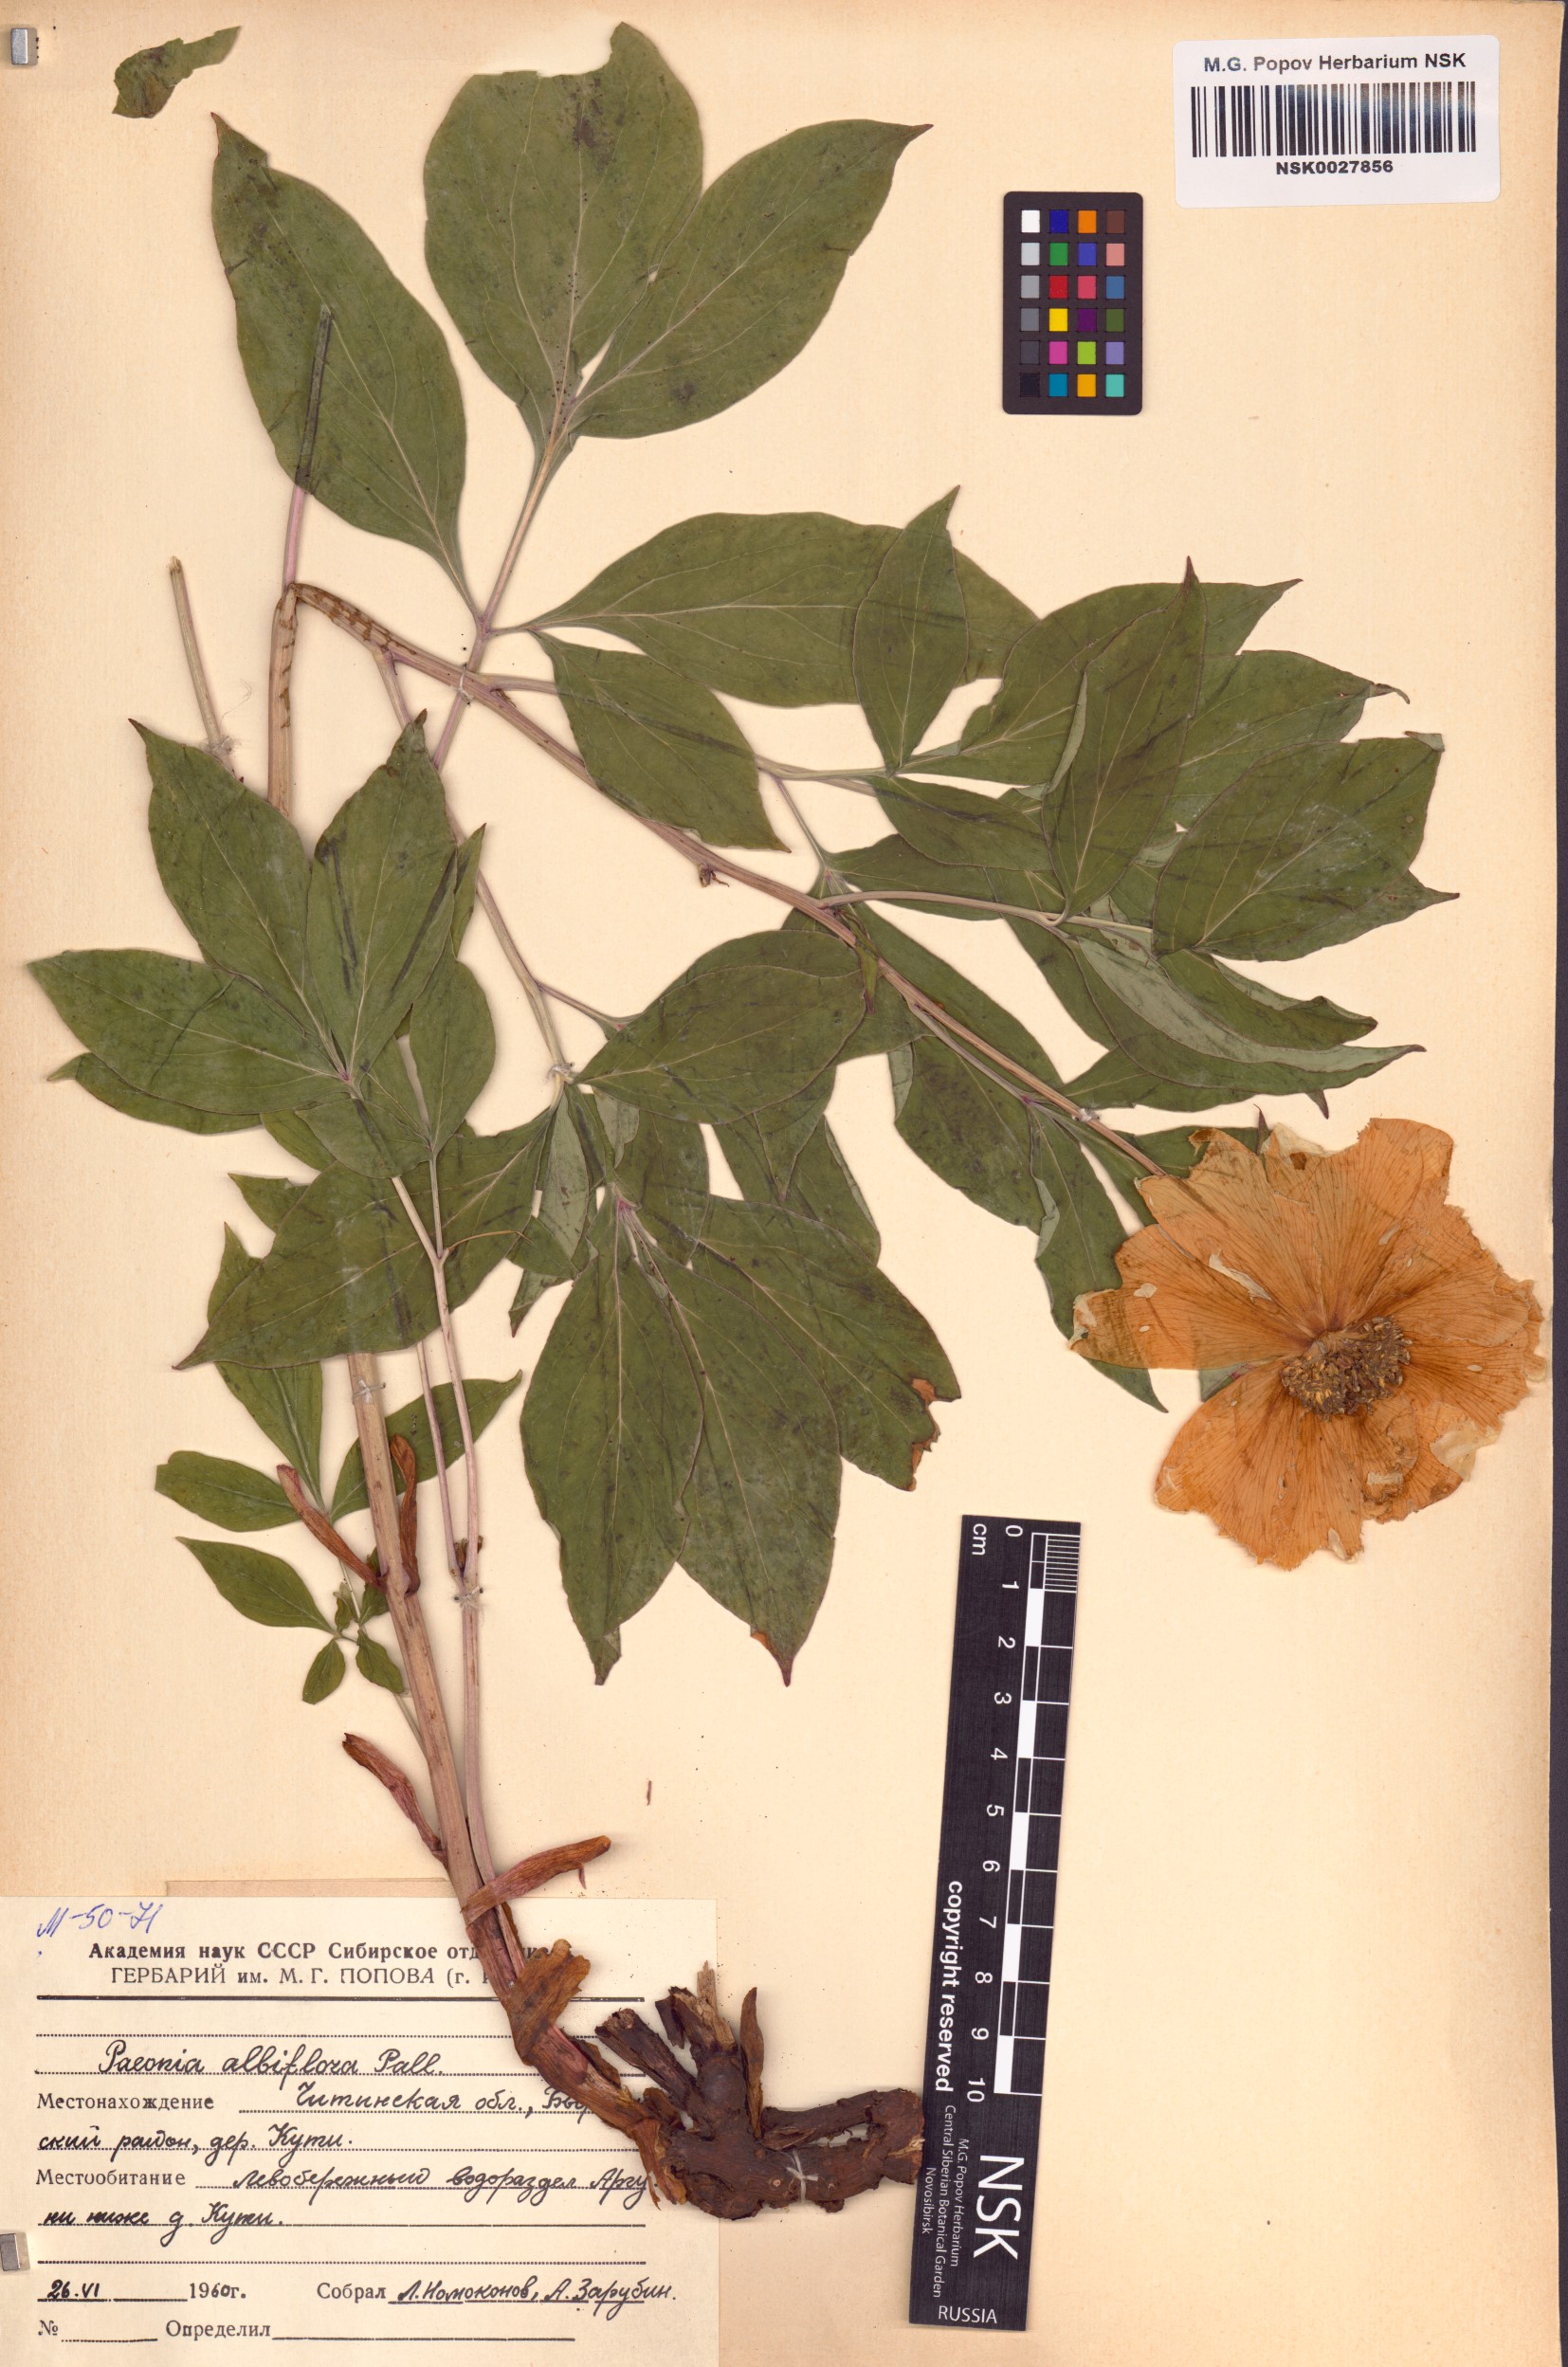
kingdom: Plantae
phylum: Tracheophyta
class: Magnoliopsida
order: Saxifragales
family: Paeoniaceae
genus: Paeonia
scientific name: Paeonia lactiflora
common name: Chinese peony
